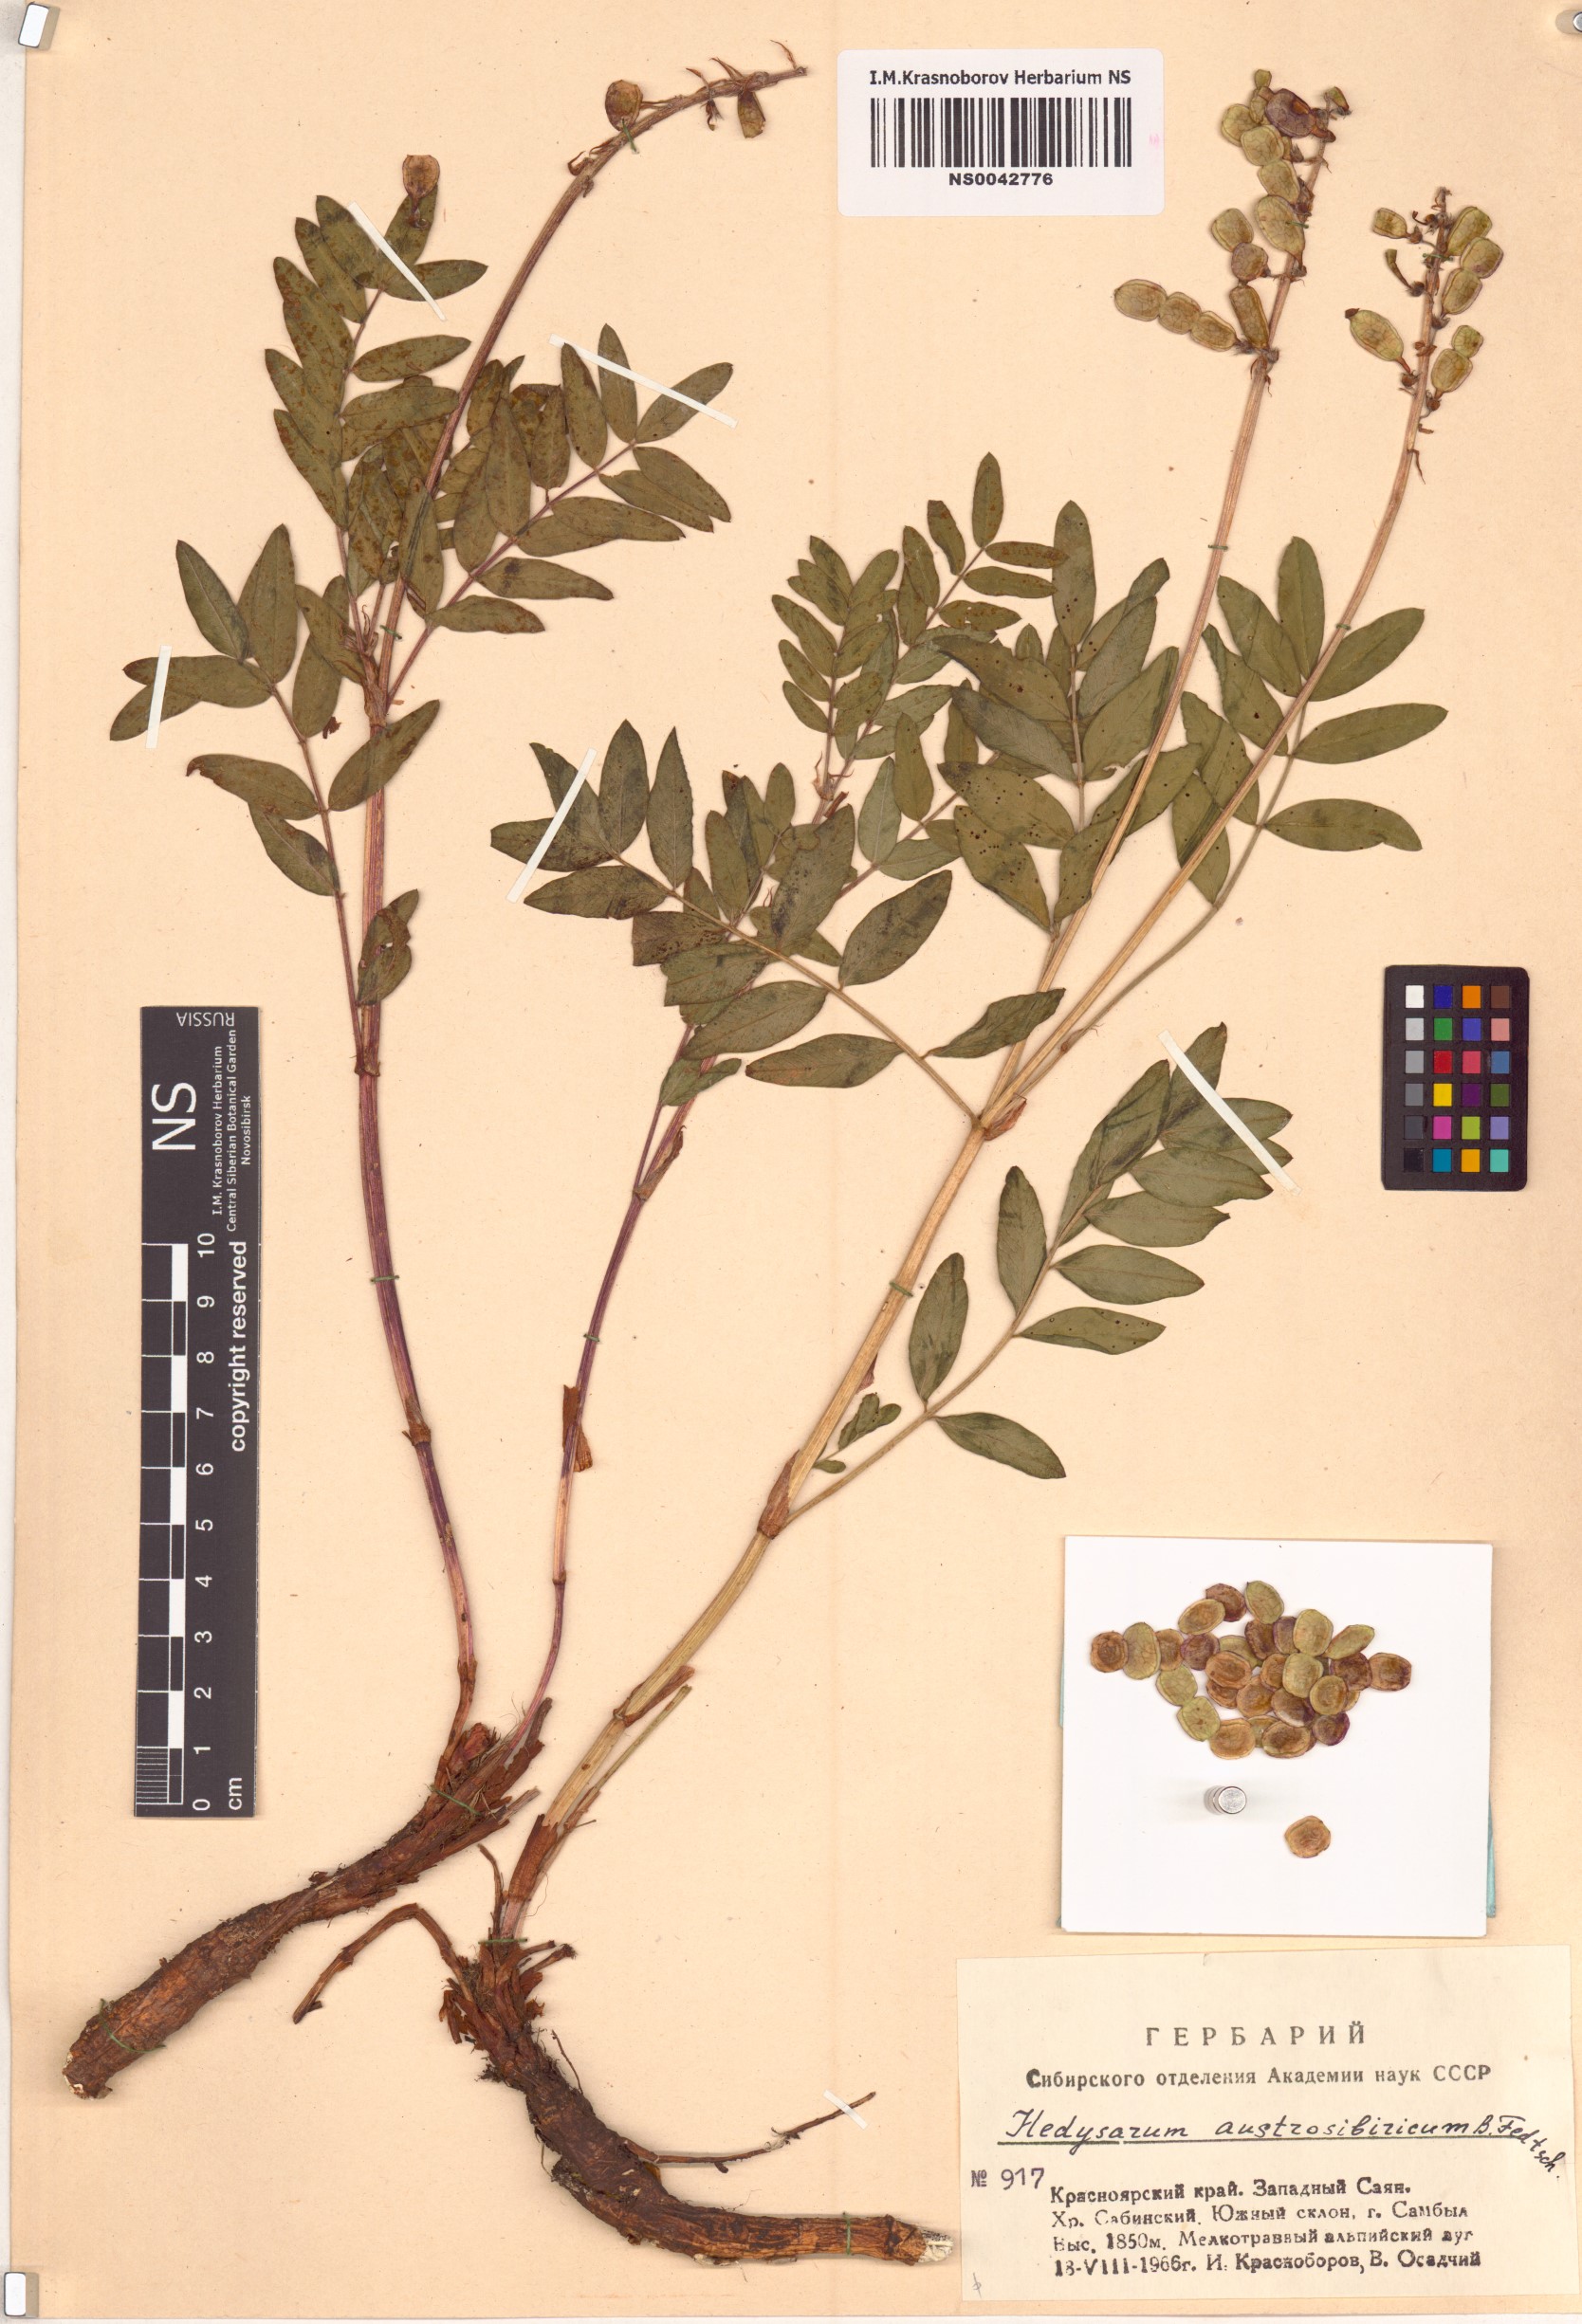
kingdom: Plantae
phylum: Tracheophyta
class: Magnoliopsida
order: Fabales
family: Fabaceae
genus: Hedysarum
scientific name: Hedysarum neglectum
